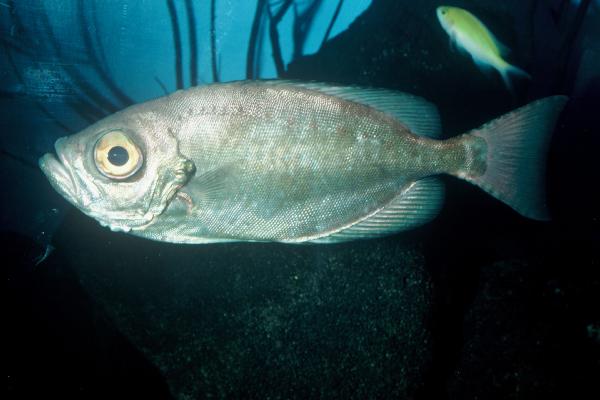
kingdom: Animalia
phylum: Chordata
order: Perciformes
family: Priacanthidae
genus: Heteropriacanthus
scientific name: Heteropriacanthus cruentatus
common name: Glasseye
